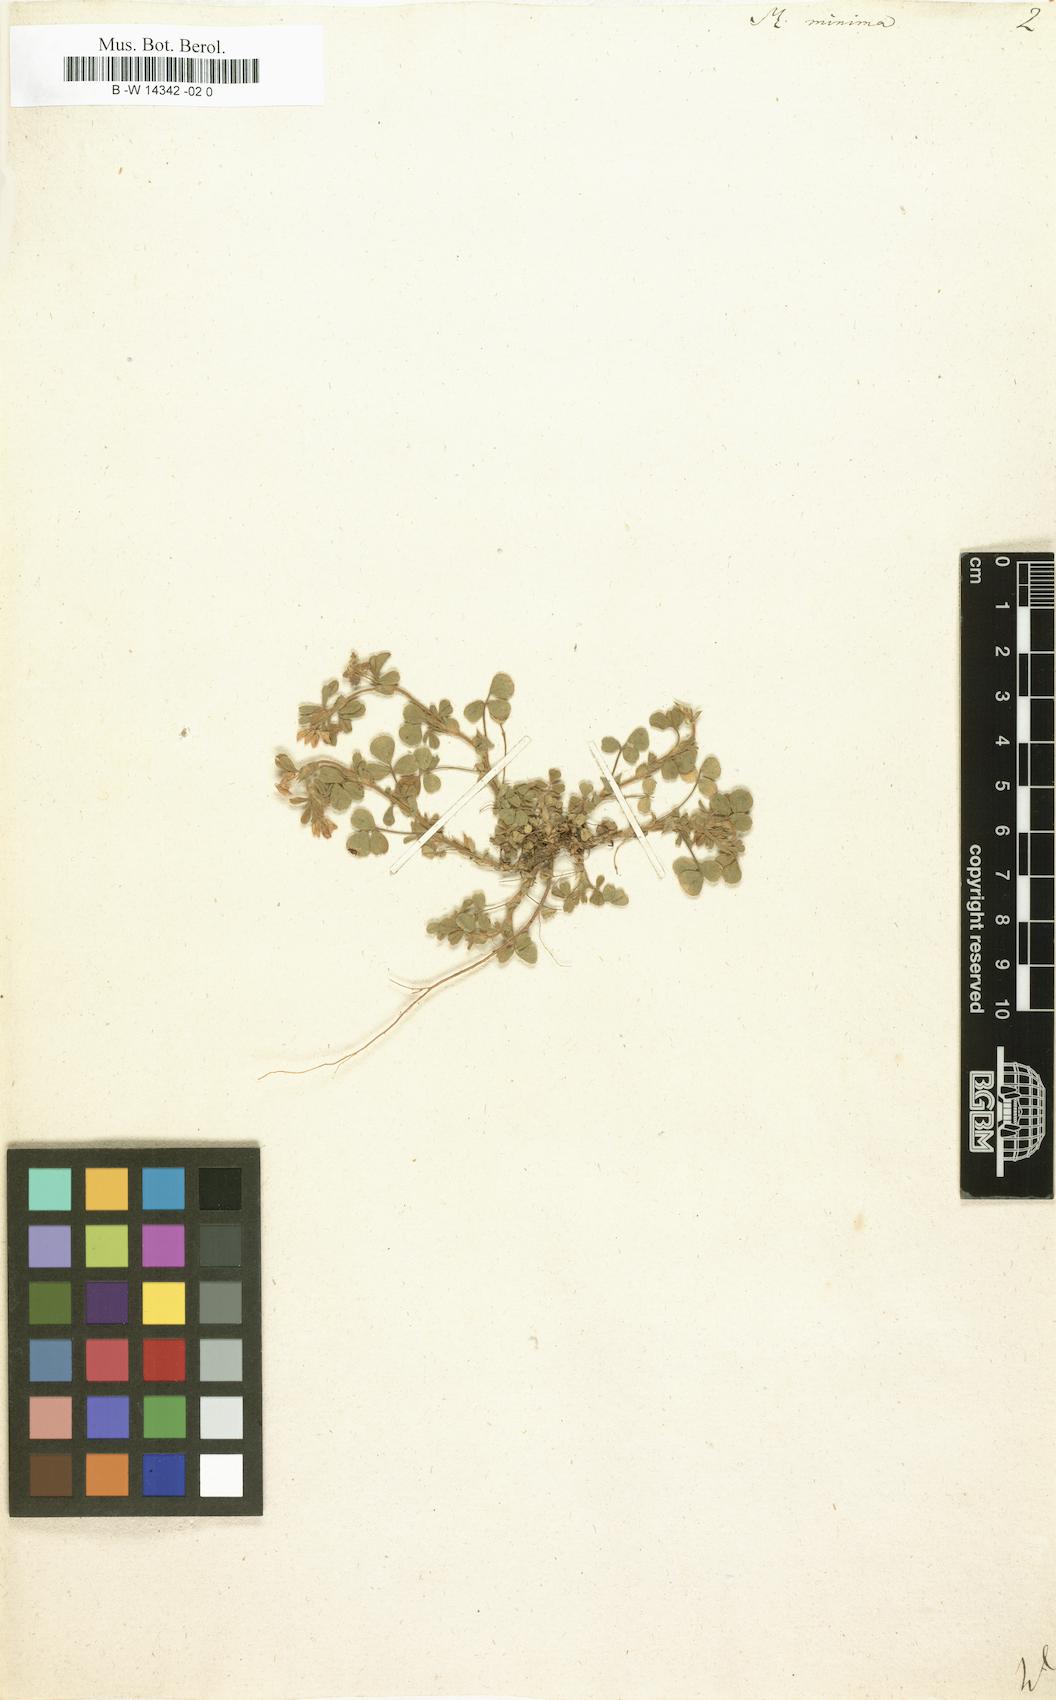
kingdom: Plantae
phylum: Tracheophyta
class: Magnoliopsida
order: Fabales
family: Fabaceae
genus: Medicago
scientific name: Medicago minima
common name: Little bur-clover
